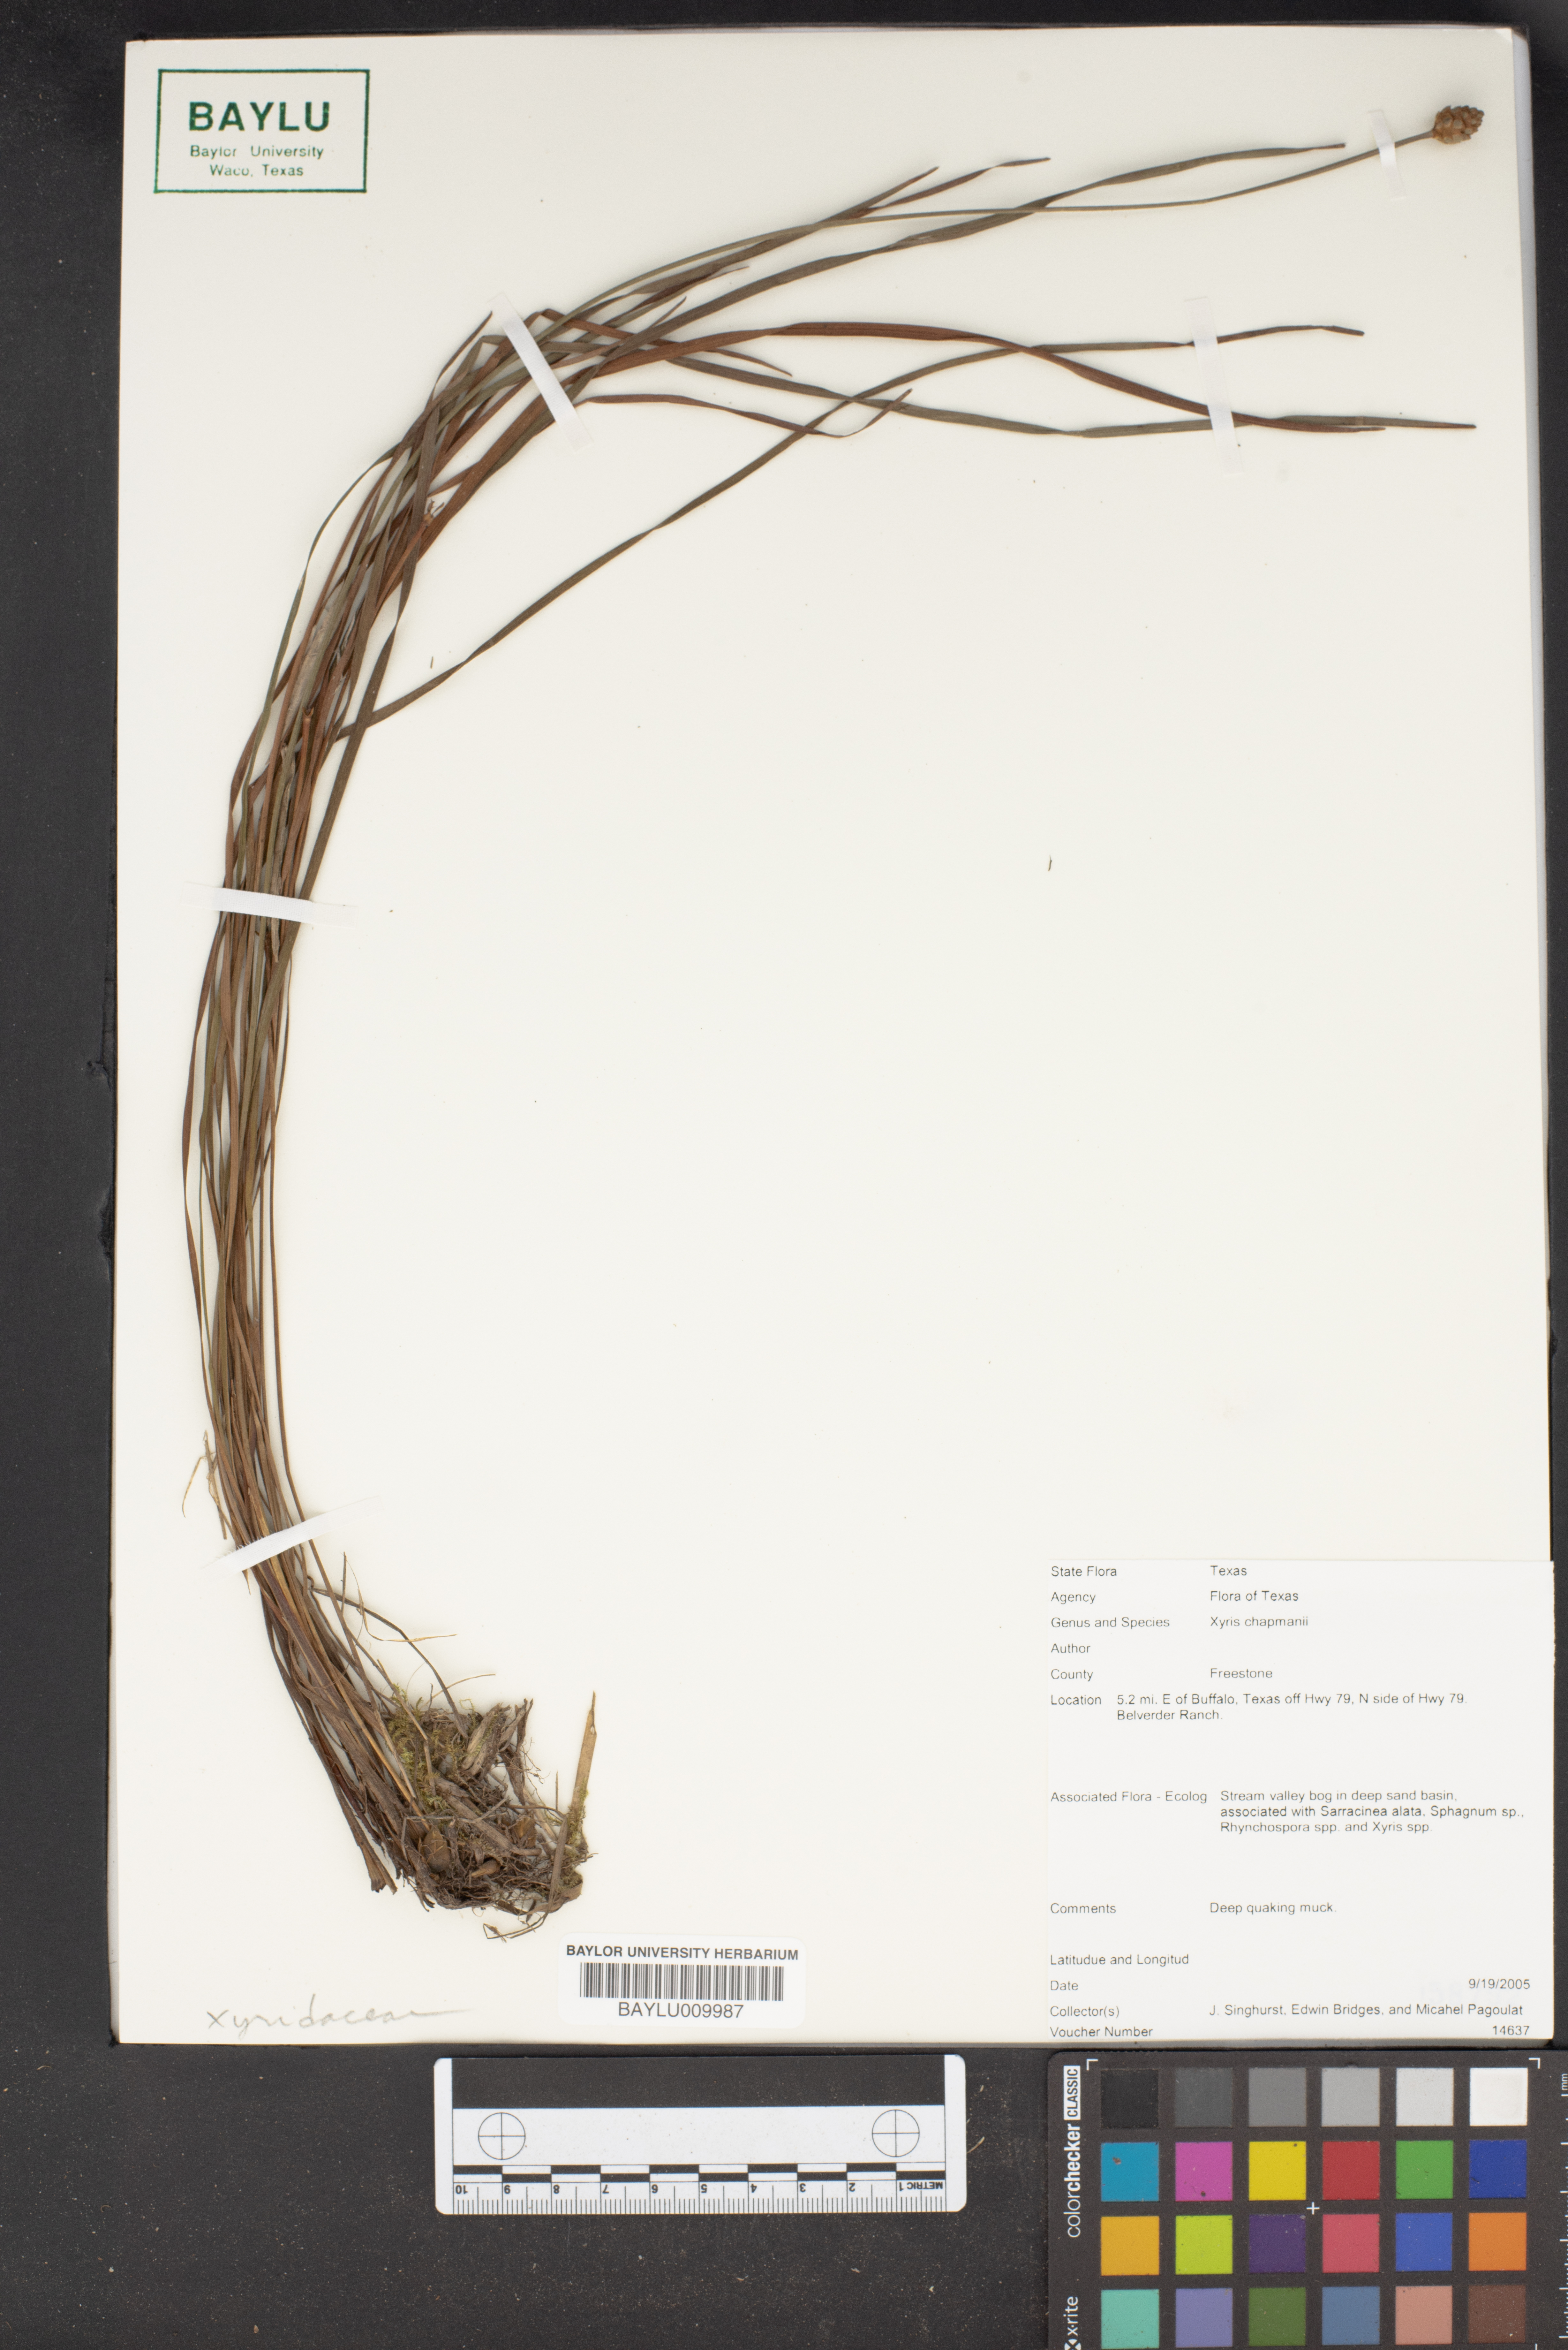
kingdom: Plantae
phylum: Tracheophyta
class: Liliopsida
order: Poales
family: Xyridaceae
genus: Xyris
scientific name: Xyris chapmanii
